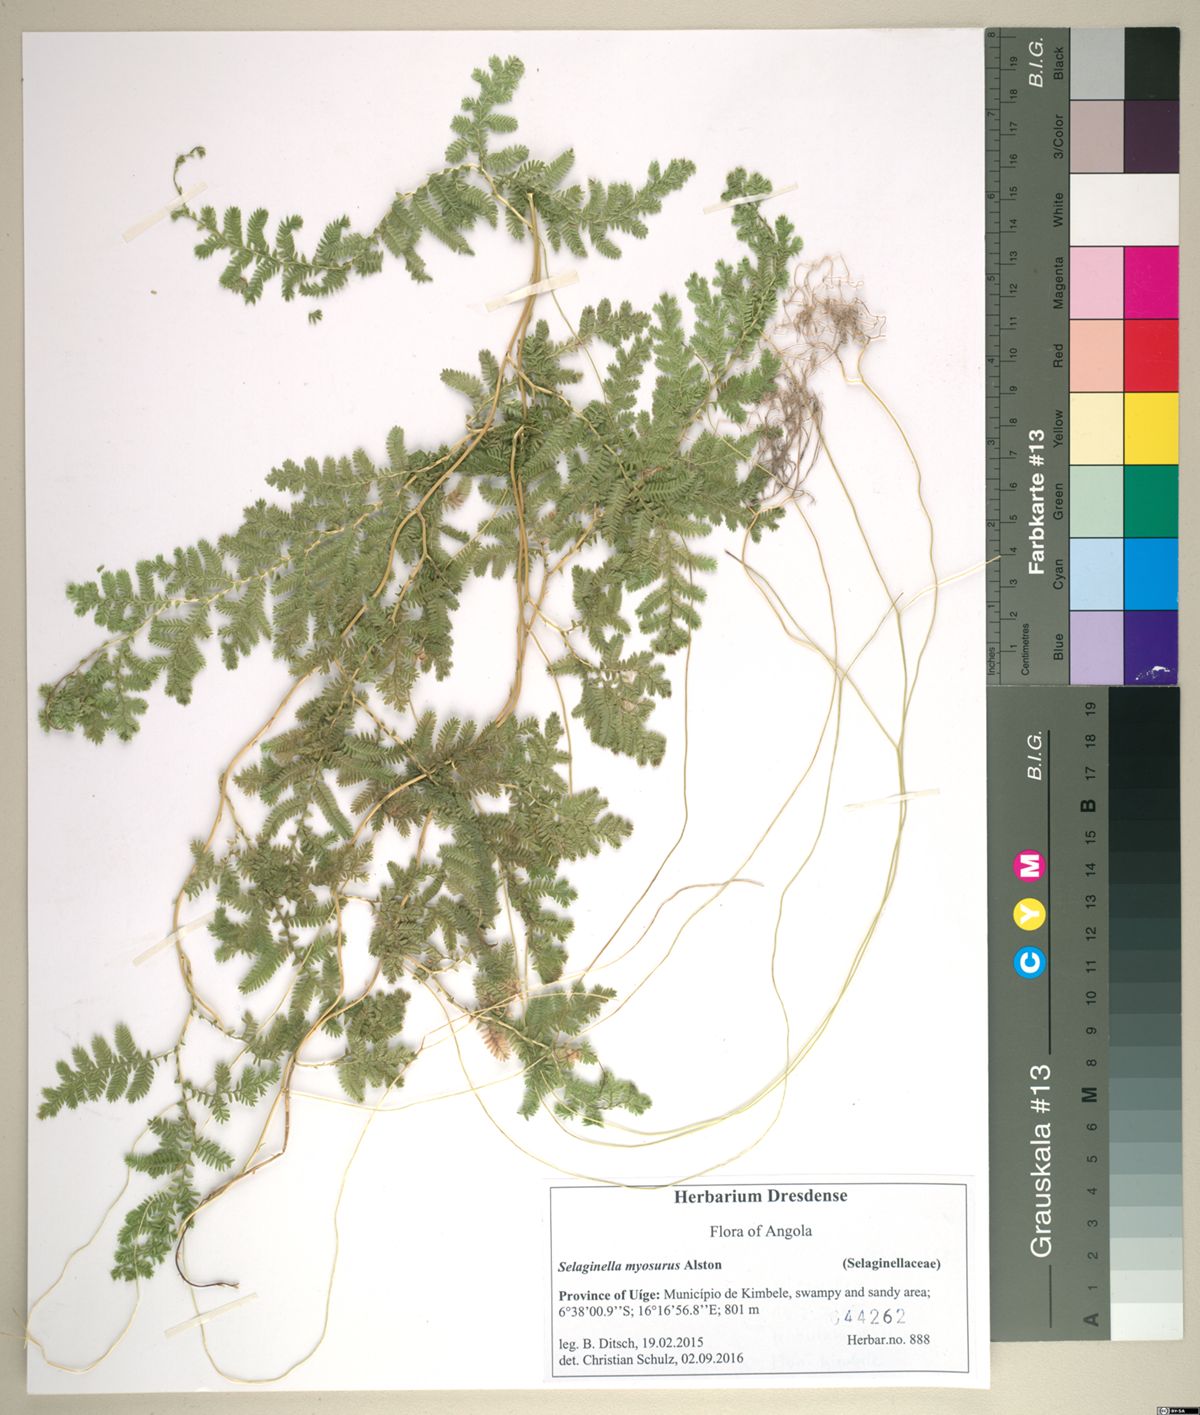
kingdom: Plantae
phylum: Tracheophyta
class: Lycopodiopsida
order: Selaginellales
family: Selaginellaceae
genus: Selaginella
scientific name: Selaginella myosurus
